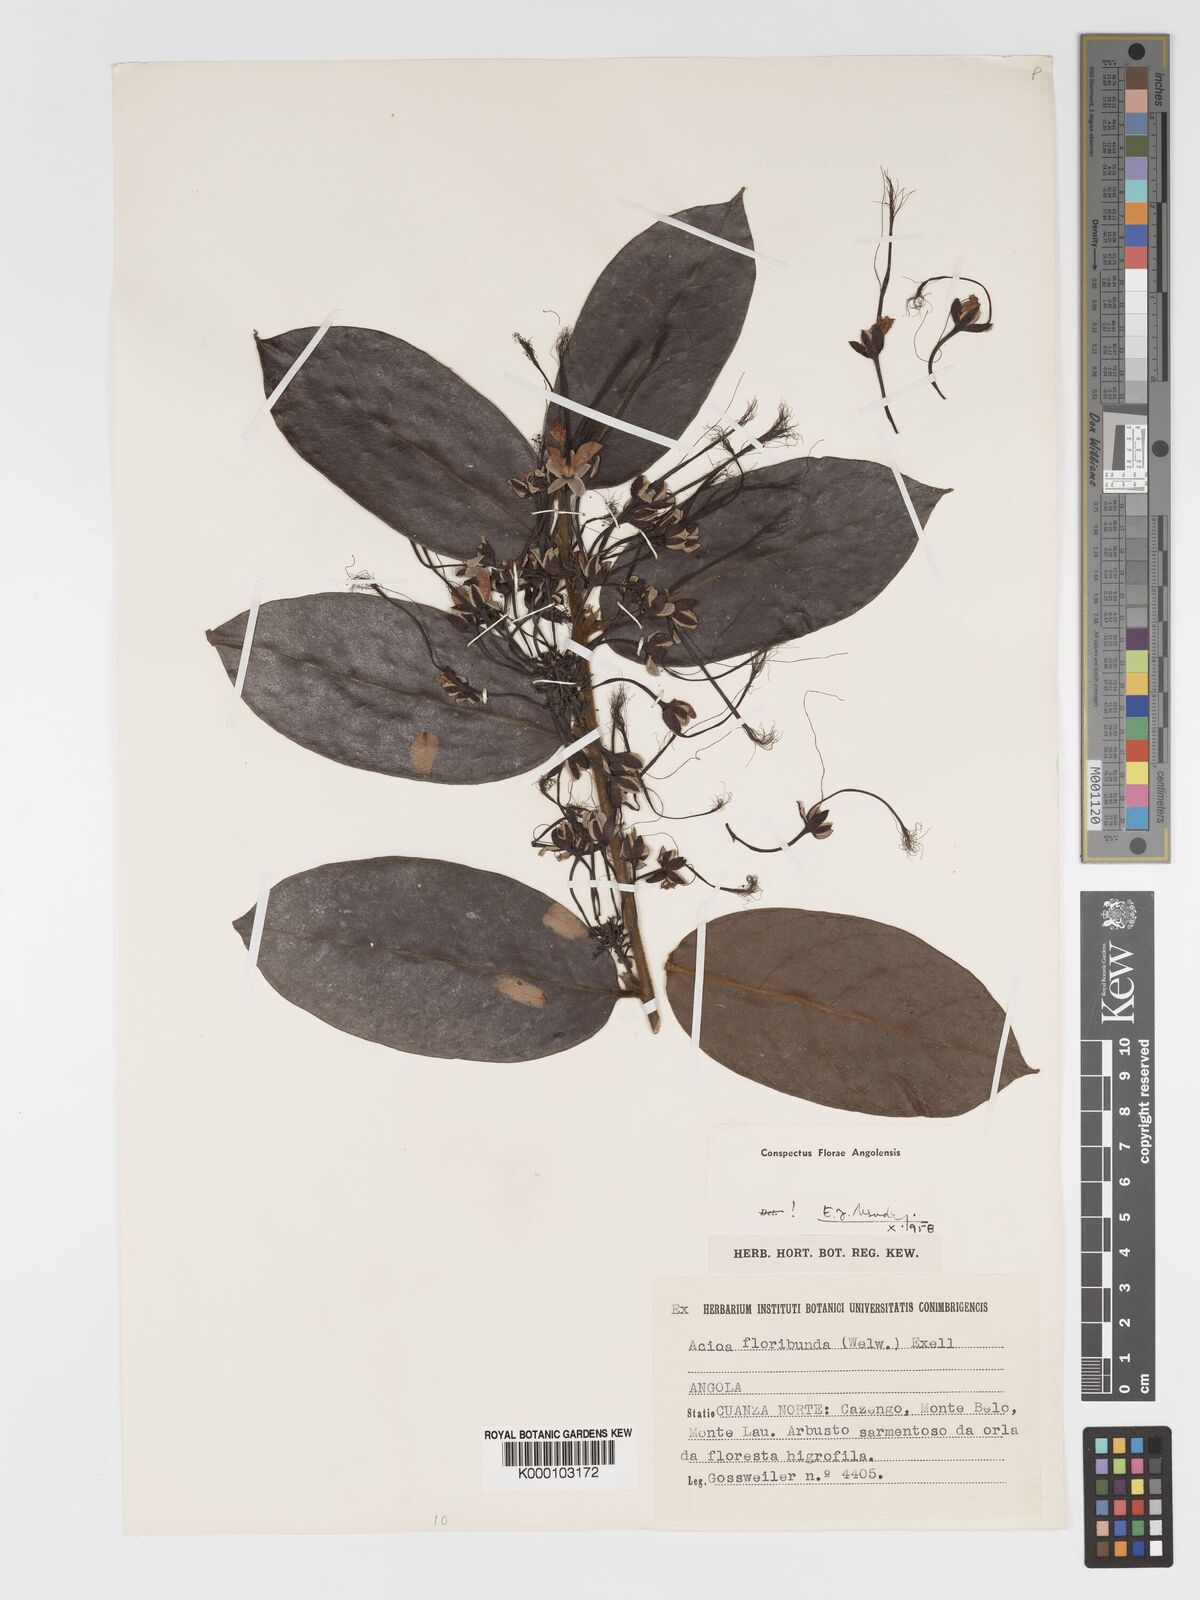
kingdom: Plantae
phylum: Tracheophyta
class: Magnoliopsida
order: Malpighiales
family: Chrysobalanaceae
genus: Dactyladenia
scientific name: Dactyladenia floribunda
